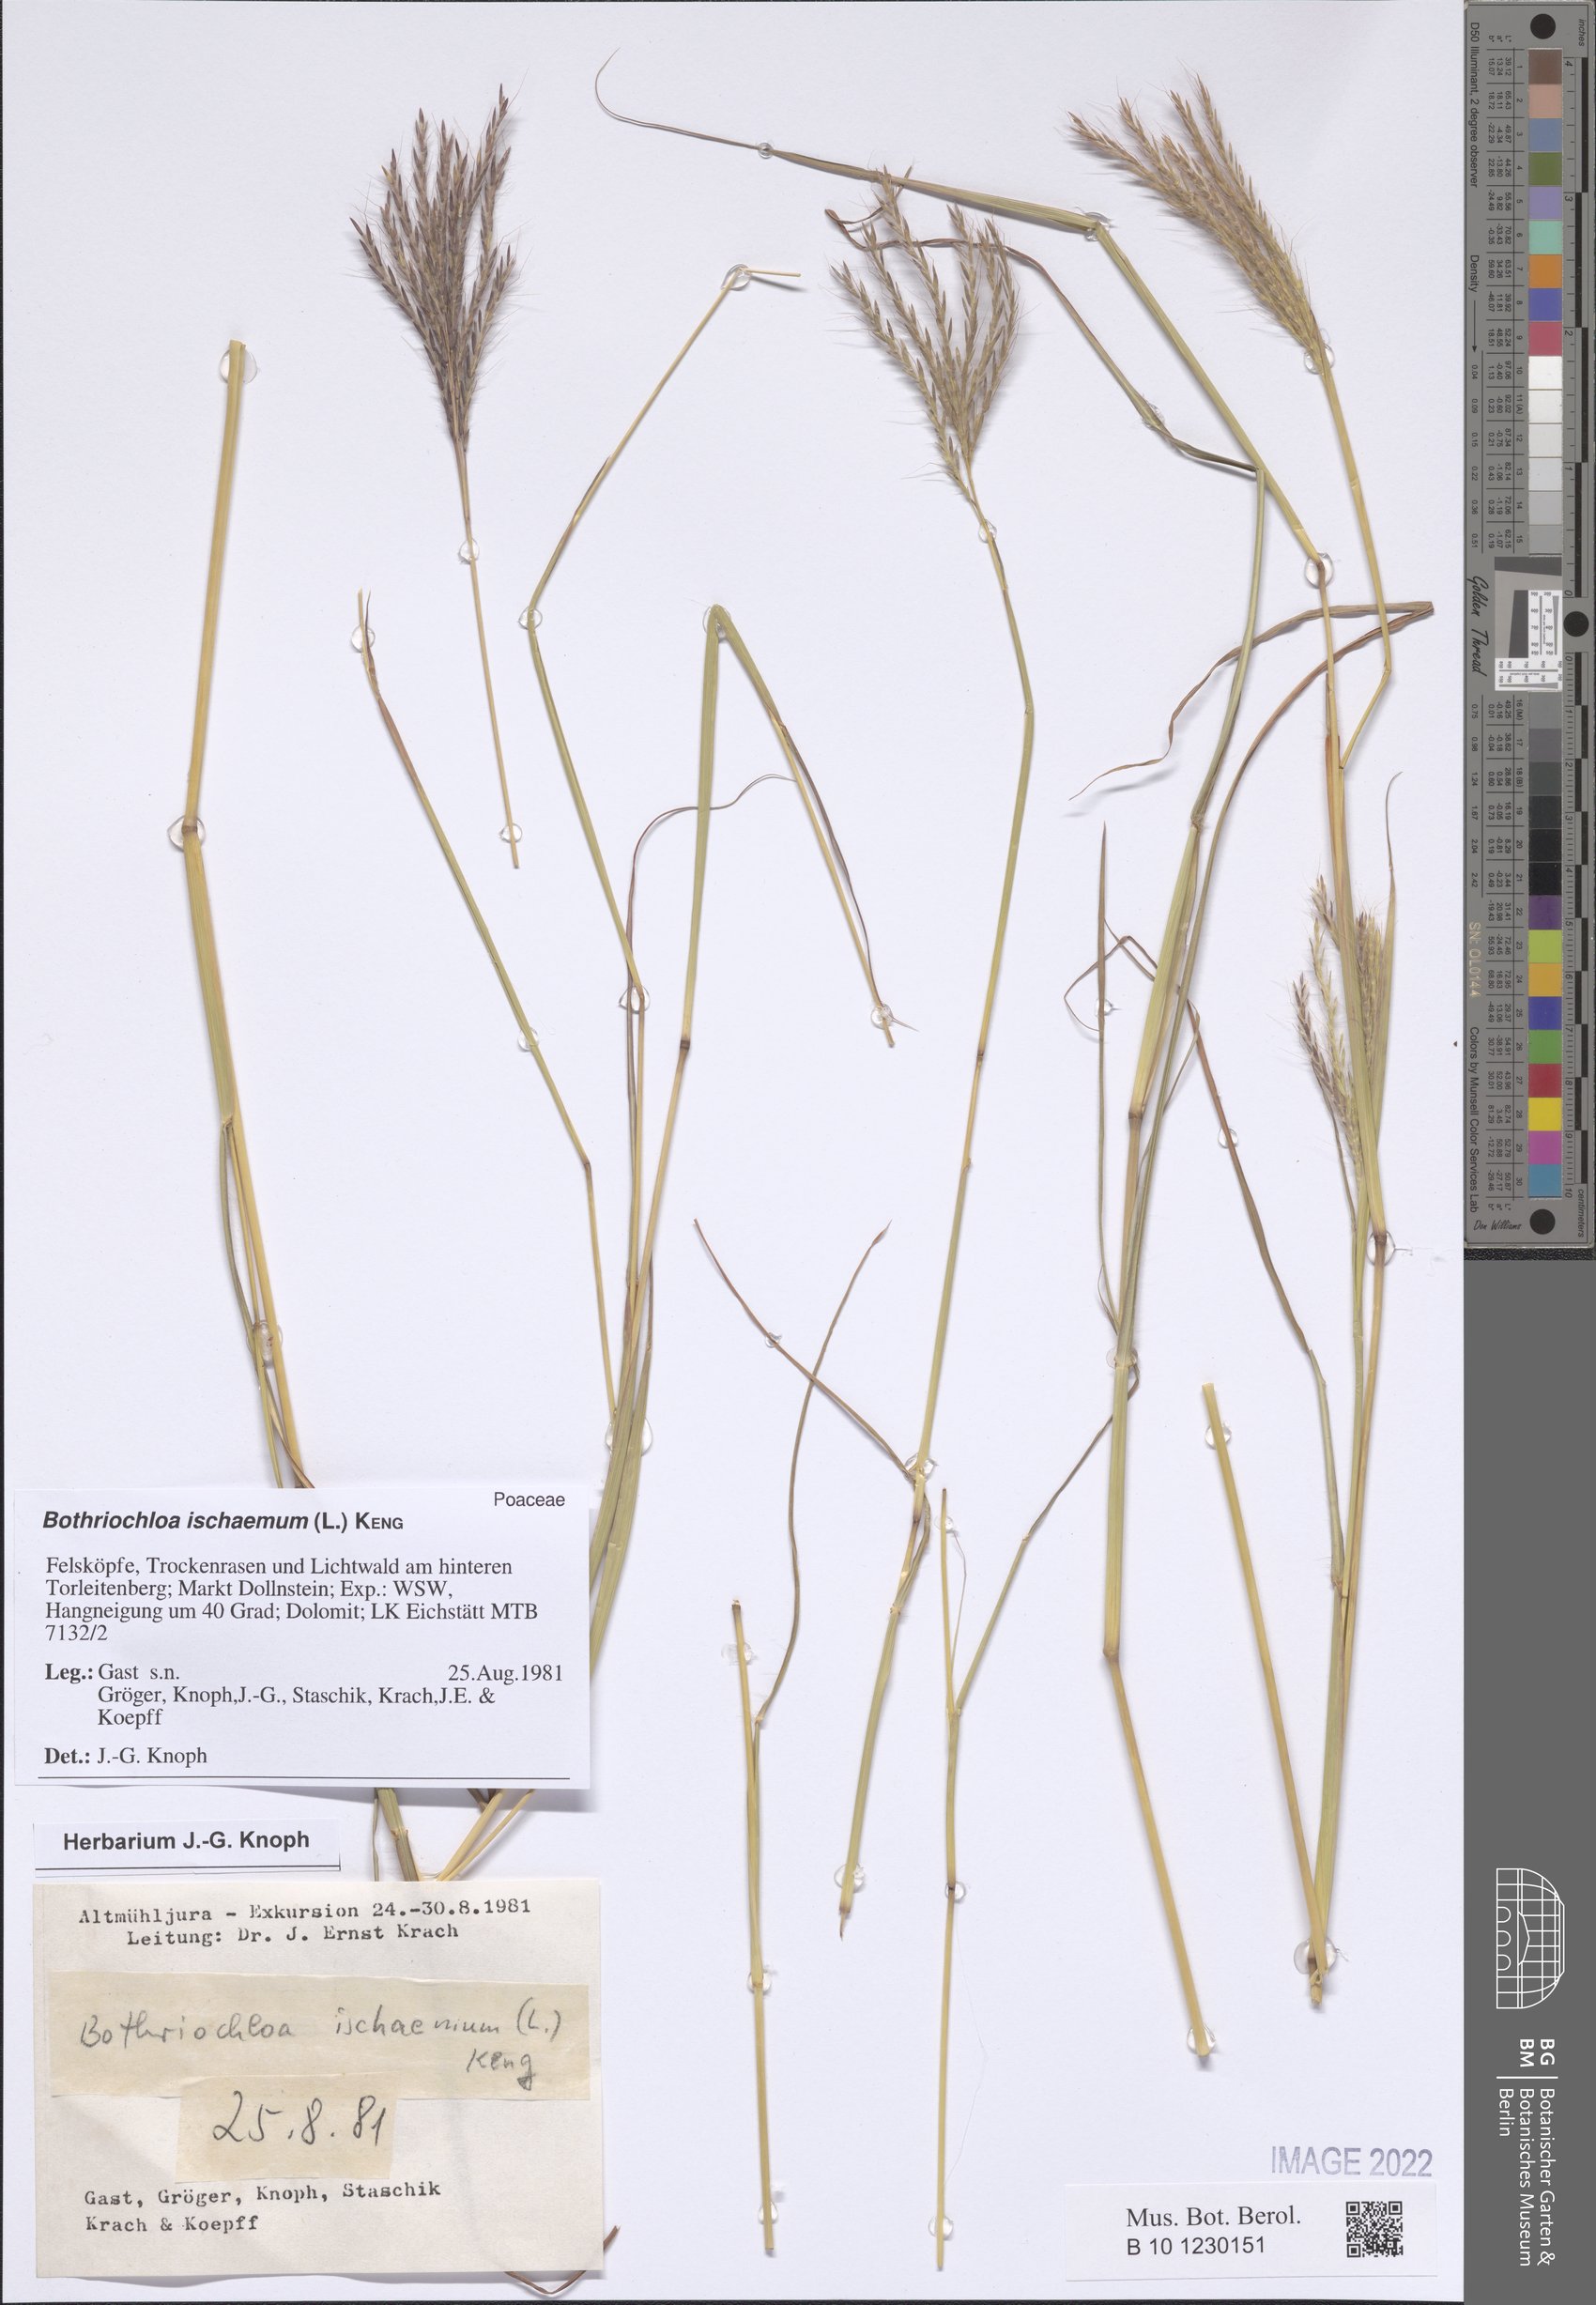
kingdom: Plantae
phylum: Tracheophyta
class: Liliopsida
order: Poales
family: Poaceae
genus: Bothriochloa
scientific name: Bothriochloa ischaemum
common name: Yellow bluestem
